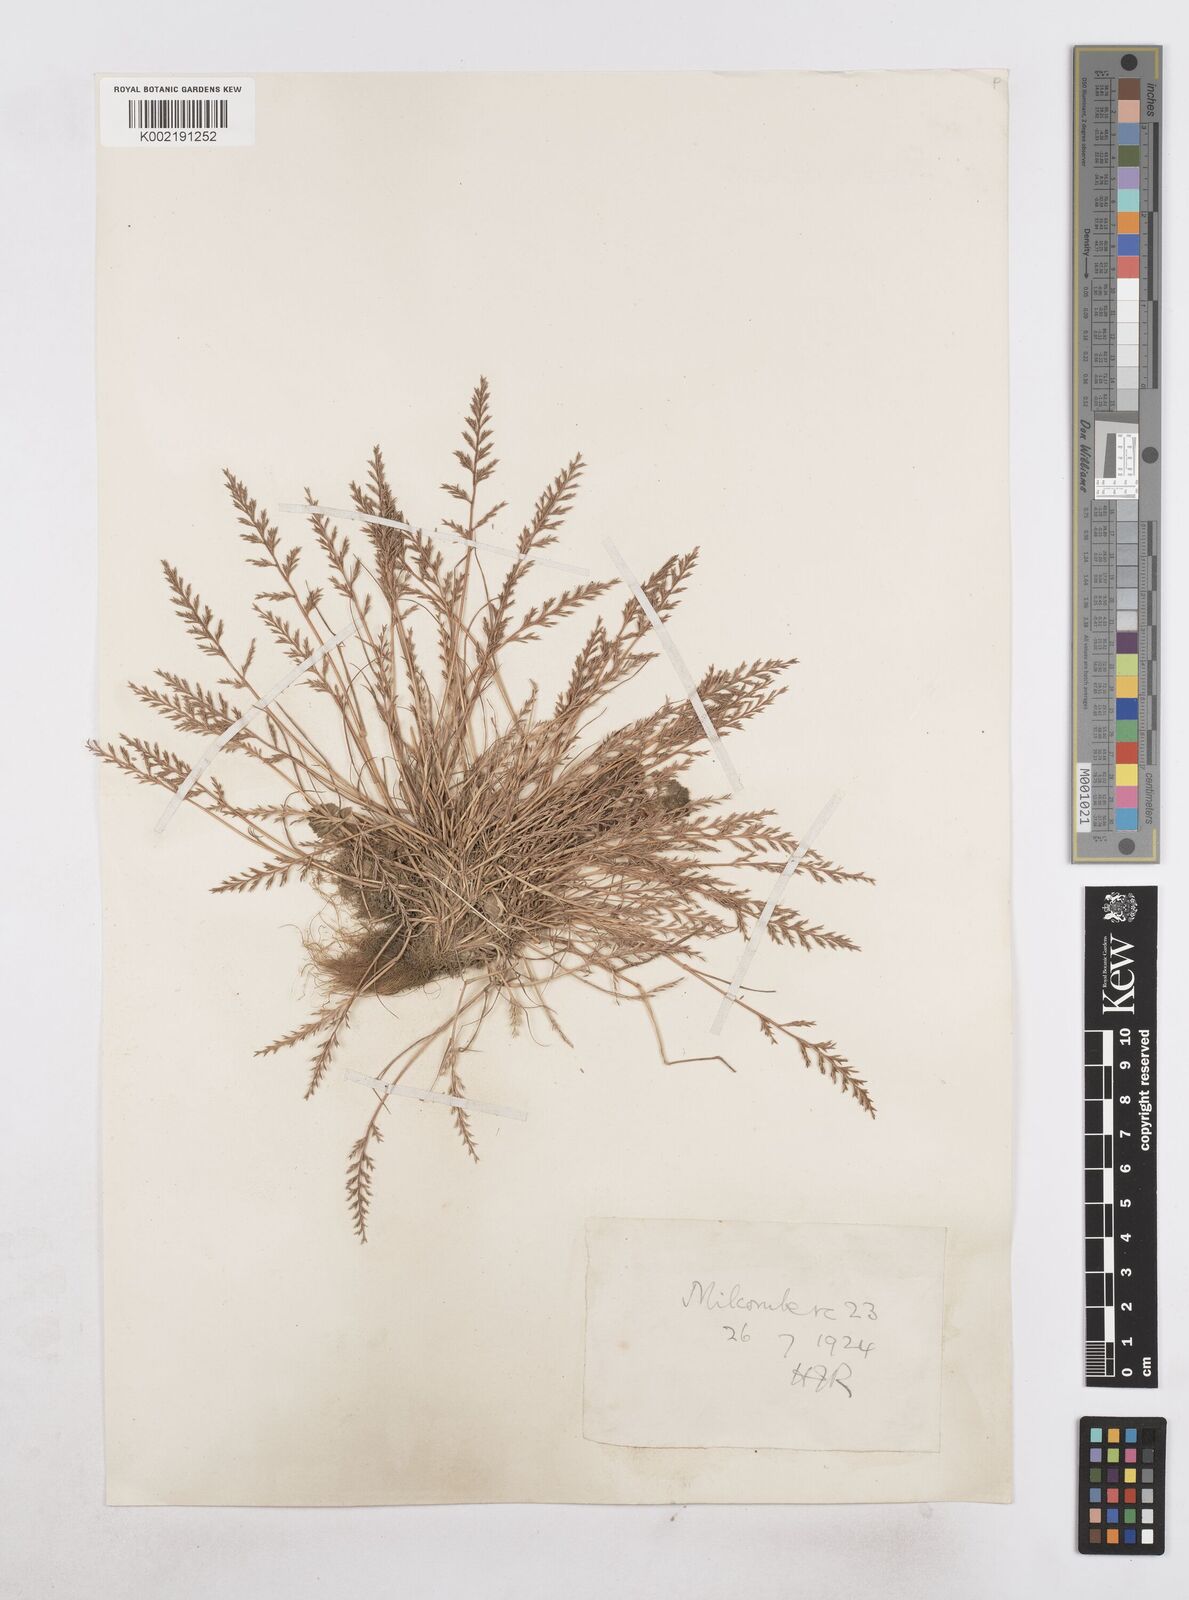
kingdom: Plantae
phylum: Tracheophyta
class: Liliopsida
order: Poales
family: Poaceae
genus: Catapodium
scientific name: Catapodium rigidum
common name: Fern-grass
